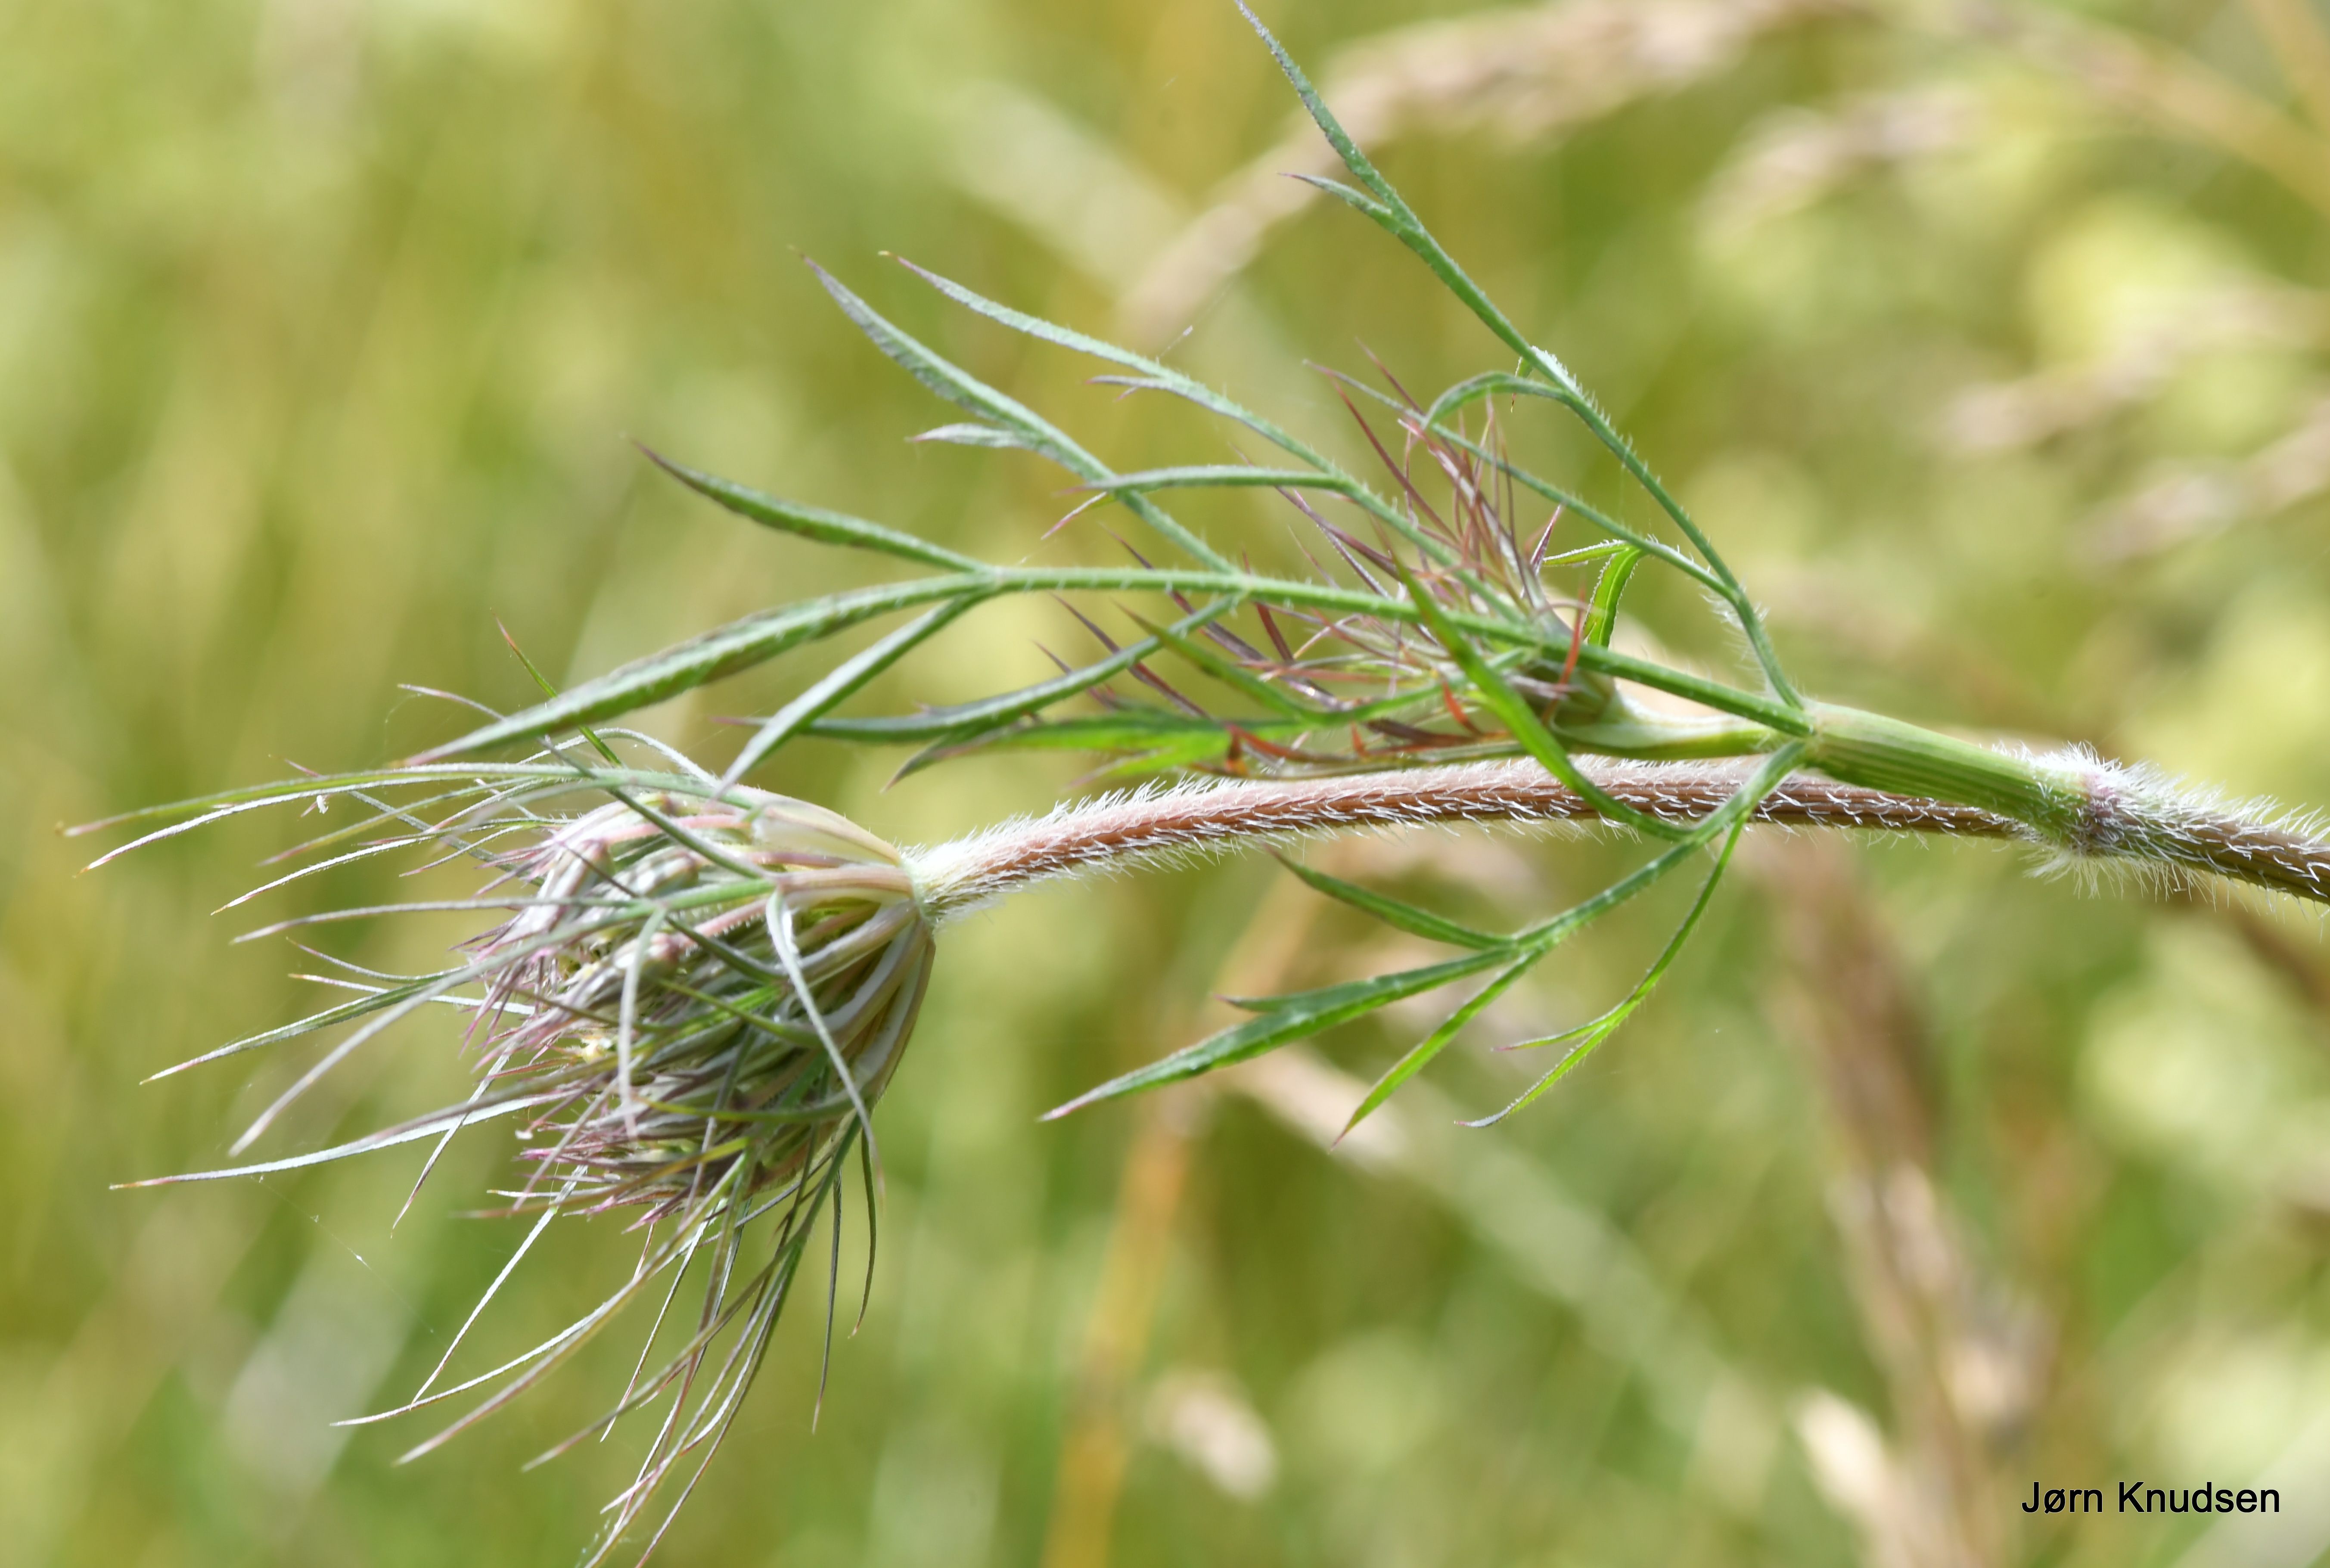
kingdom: Plantae
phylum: Tracheophyta
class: Magnoliopsida
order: Apiales
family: Apiaceae
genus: Daucus
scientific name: Daucus carota
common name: Vild gulerod
